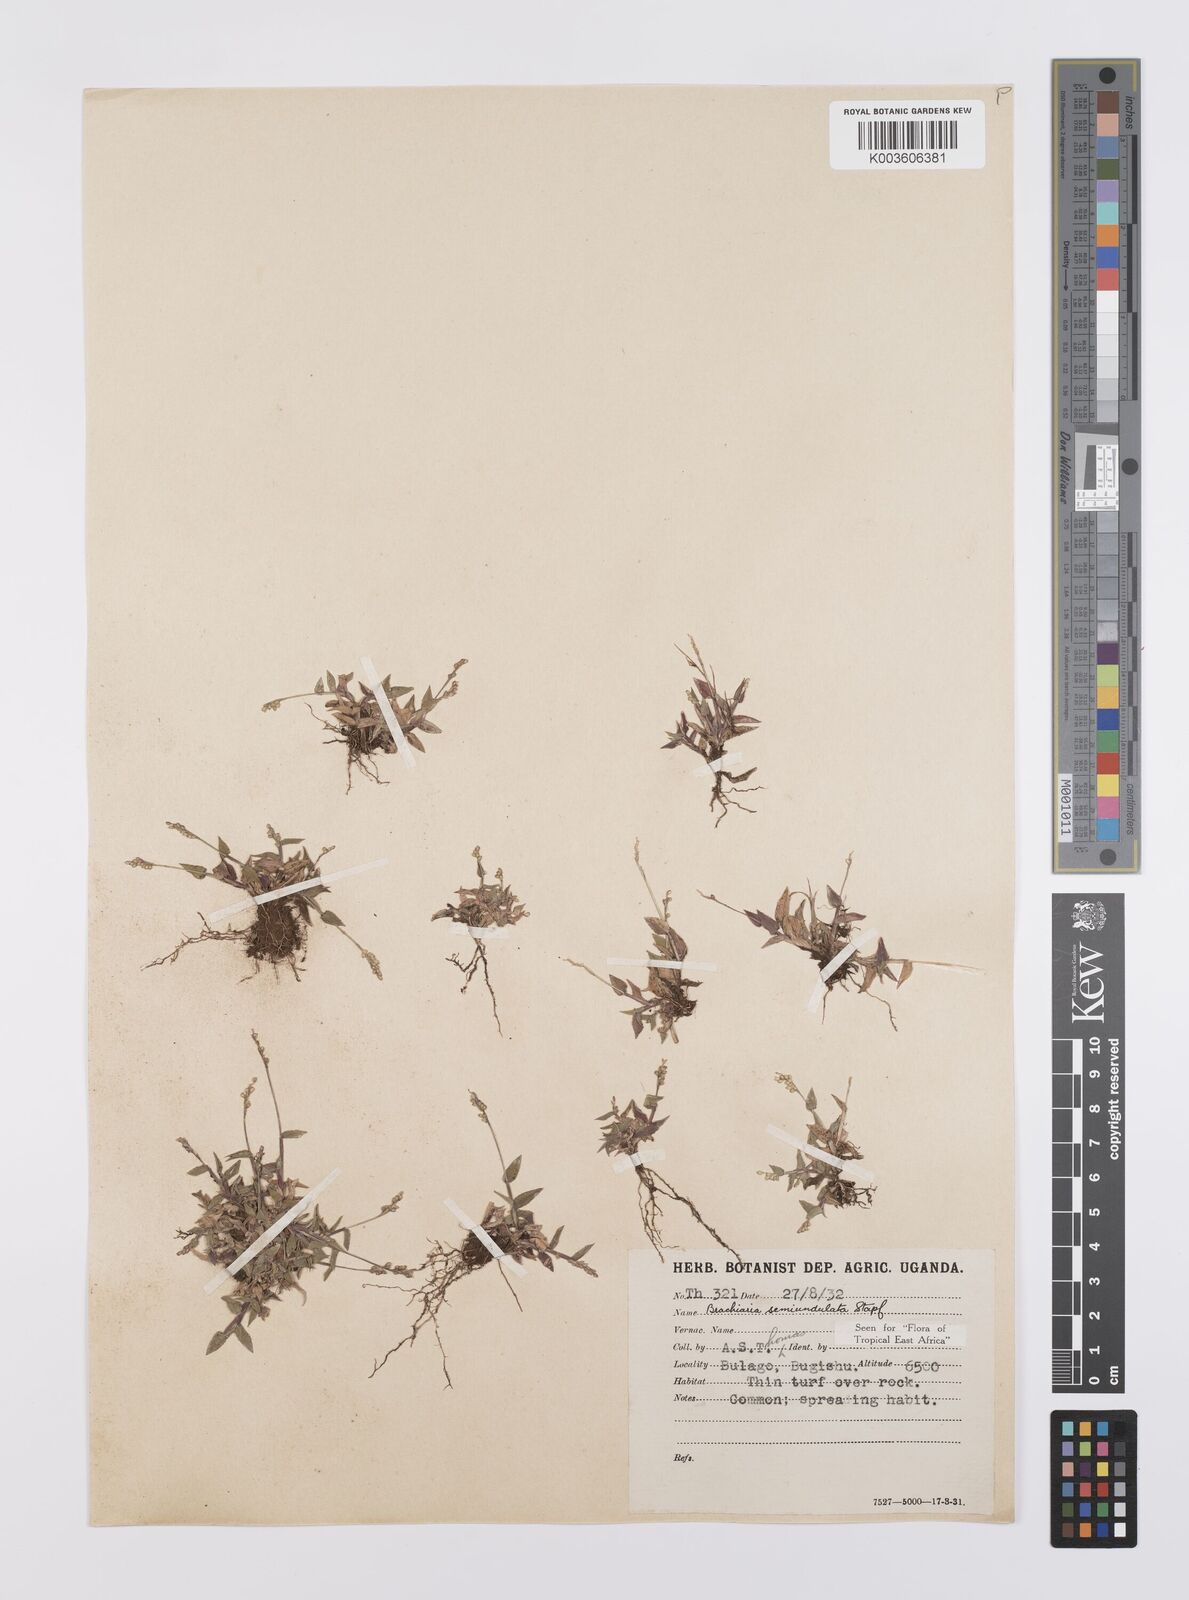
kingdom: Plantae
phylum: Tracheophyta
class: Liliopsida
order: Poales
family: Poaceae
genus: Urochloa
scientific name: Urochloa semiundulata
